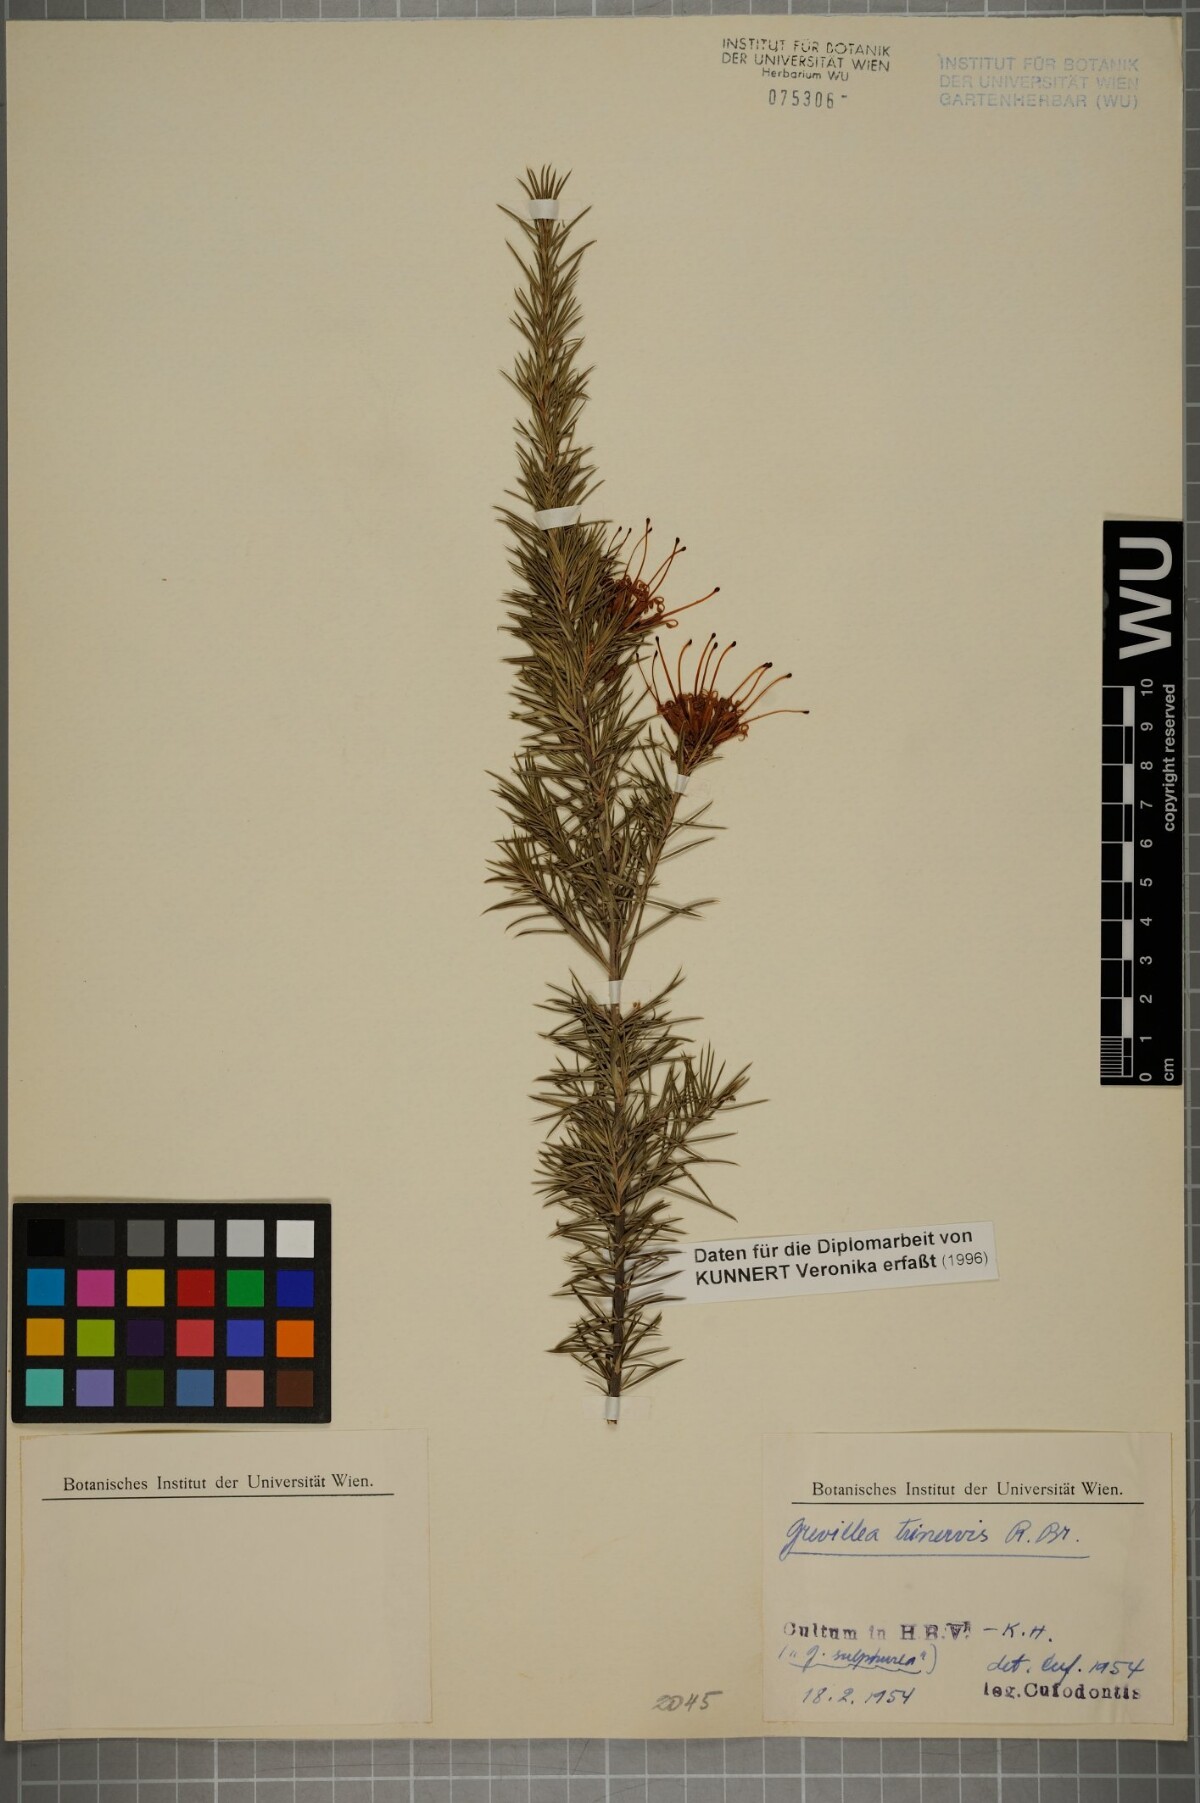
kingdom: Plantae
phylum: Tracheophyta
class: Magnoliopsida
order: Proteales
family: Proteaceae
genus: Grevillea
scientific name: Grevillea juniperina
